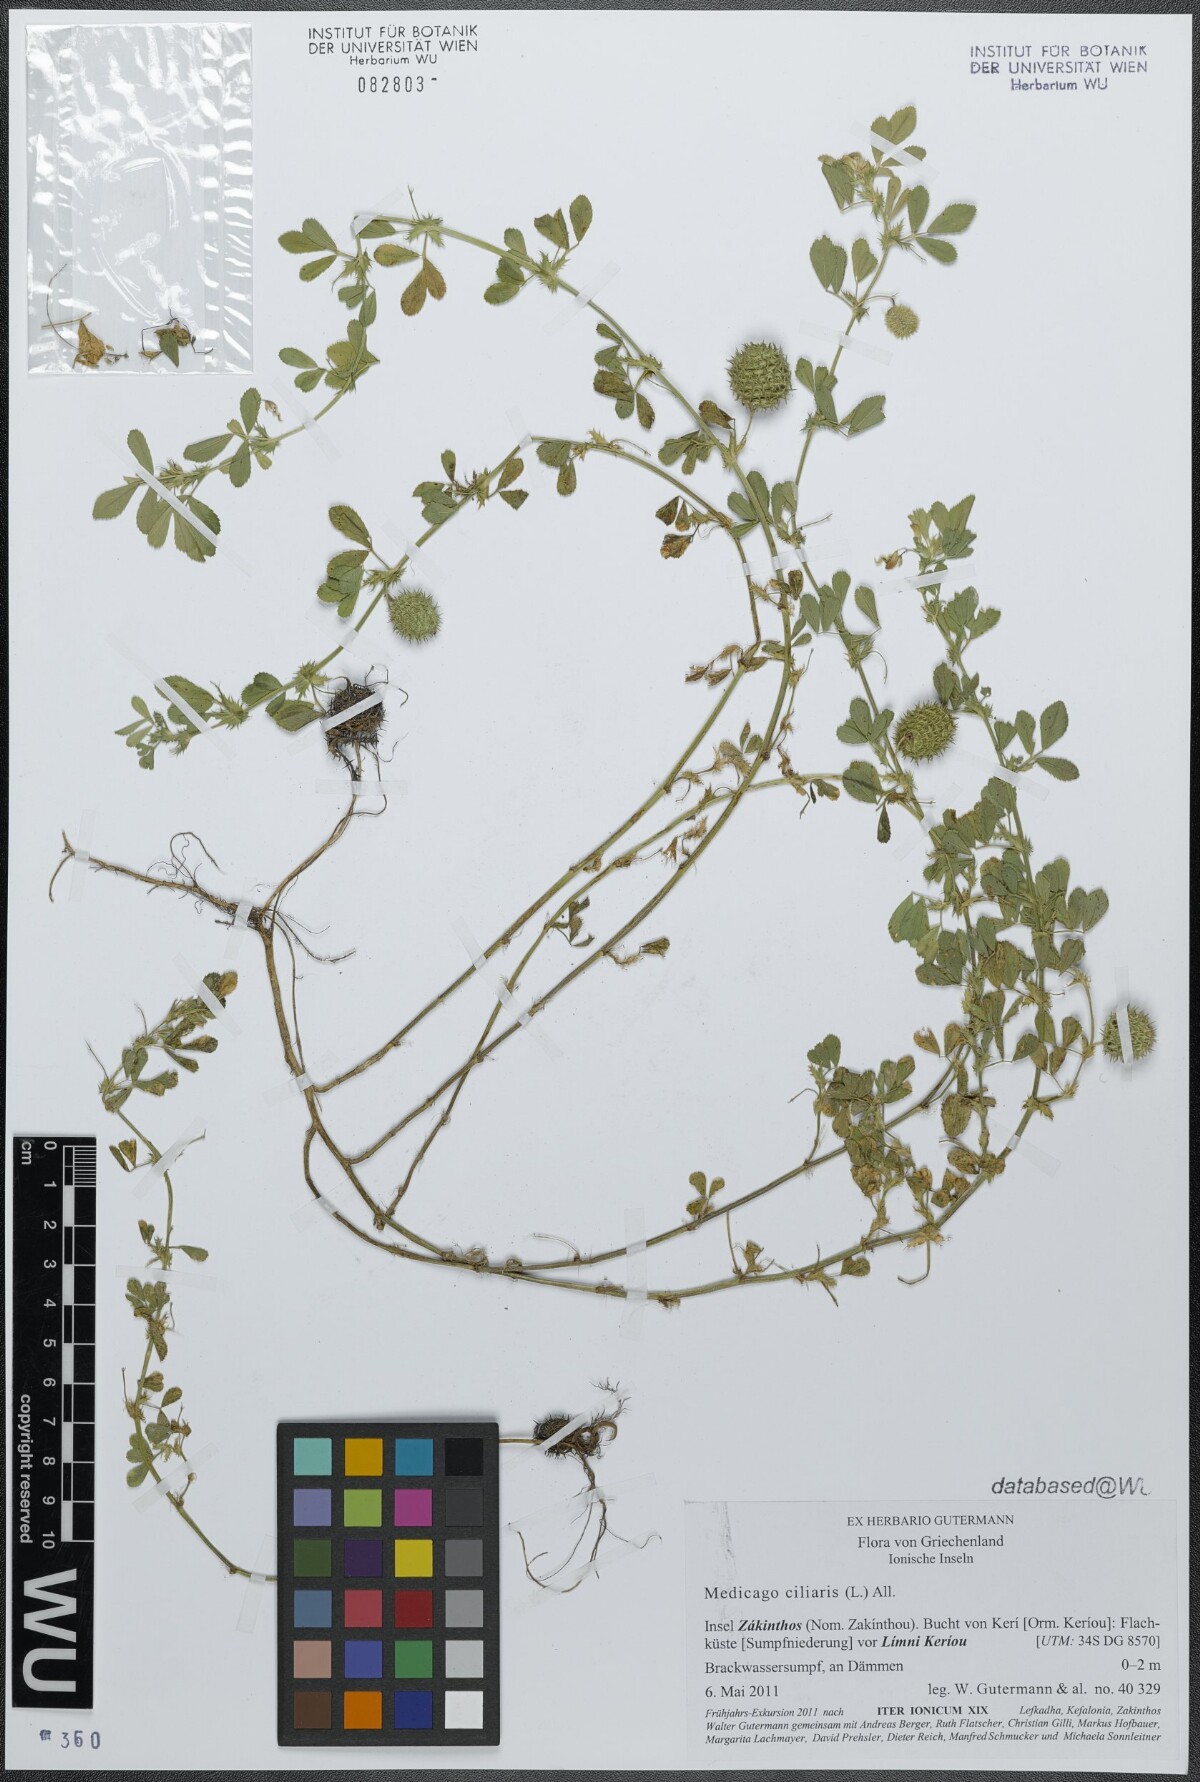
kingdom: Plantae
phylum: Tracheophyta
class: Magnoliopsida
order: Fabales
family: Fabaceae
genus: Medicago
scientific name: Medicago ciliaris
